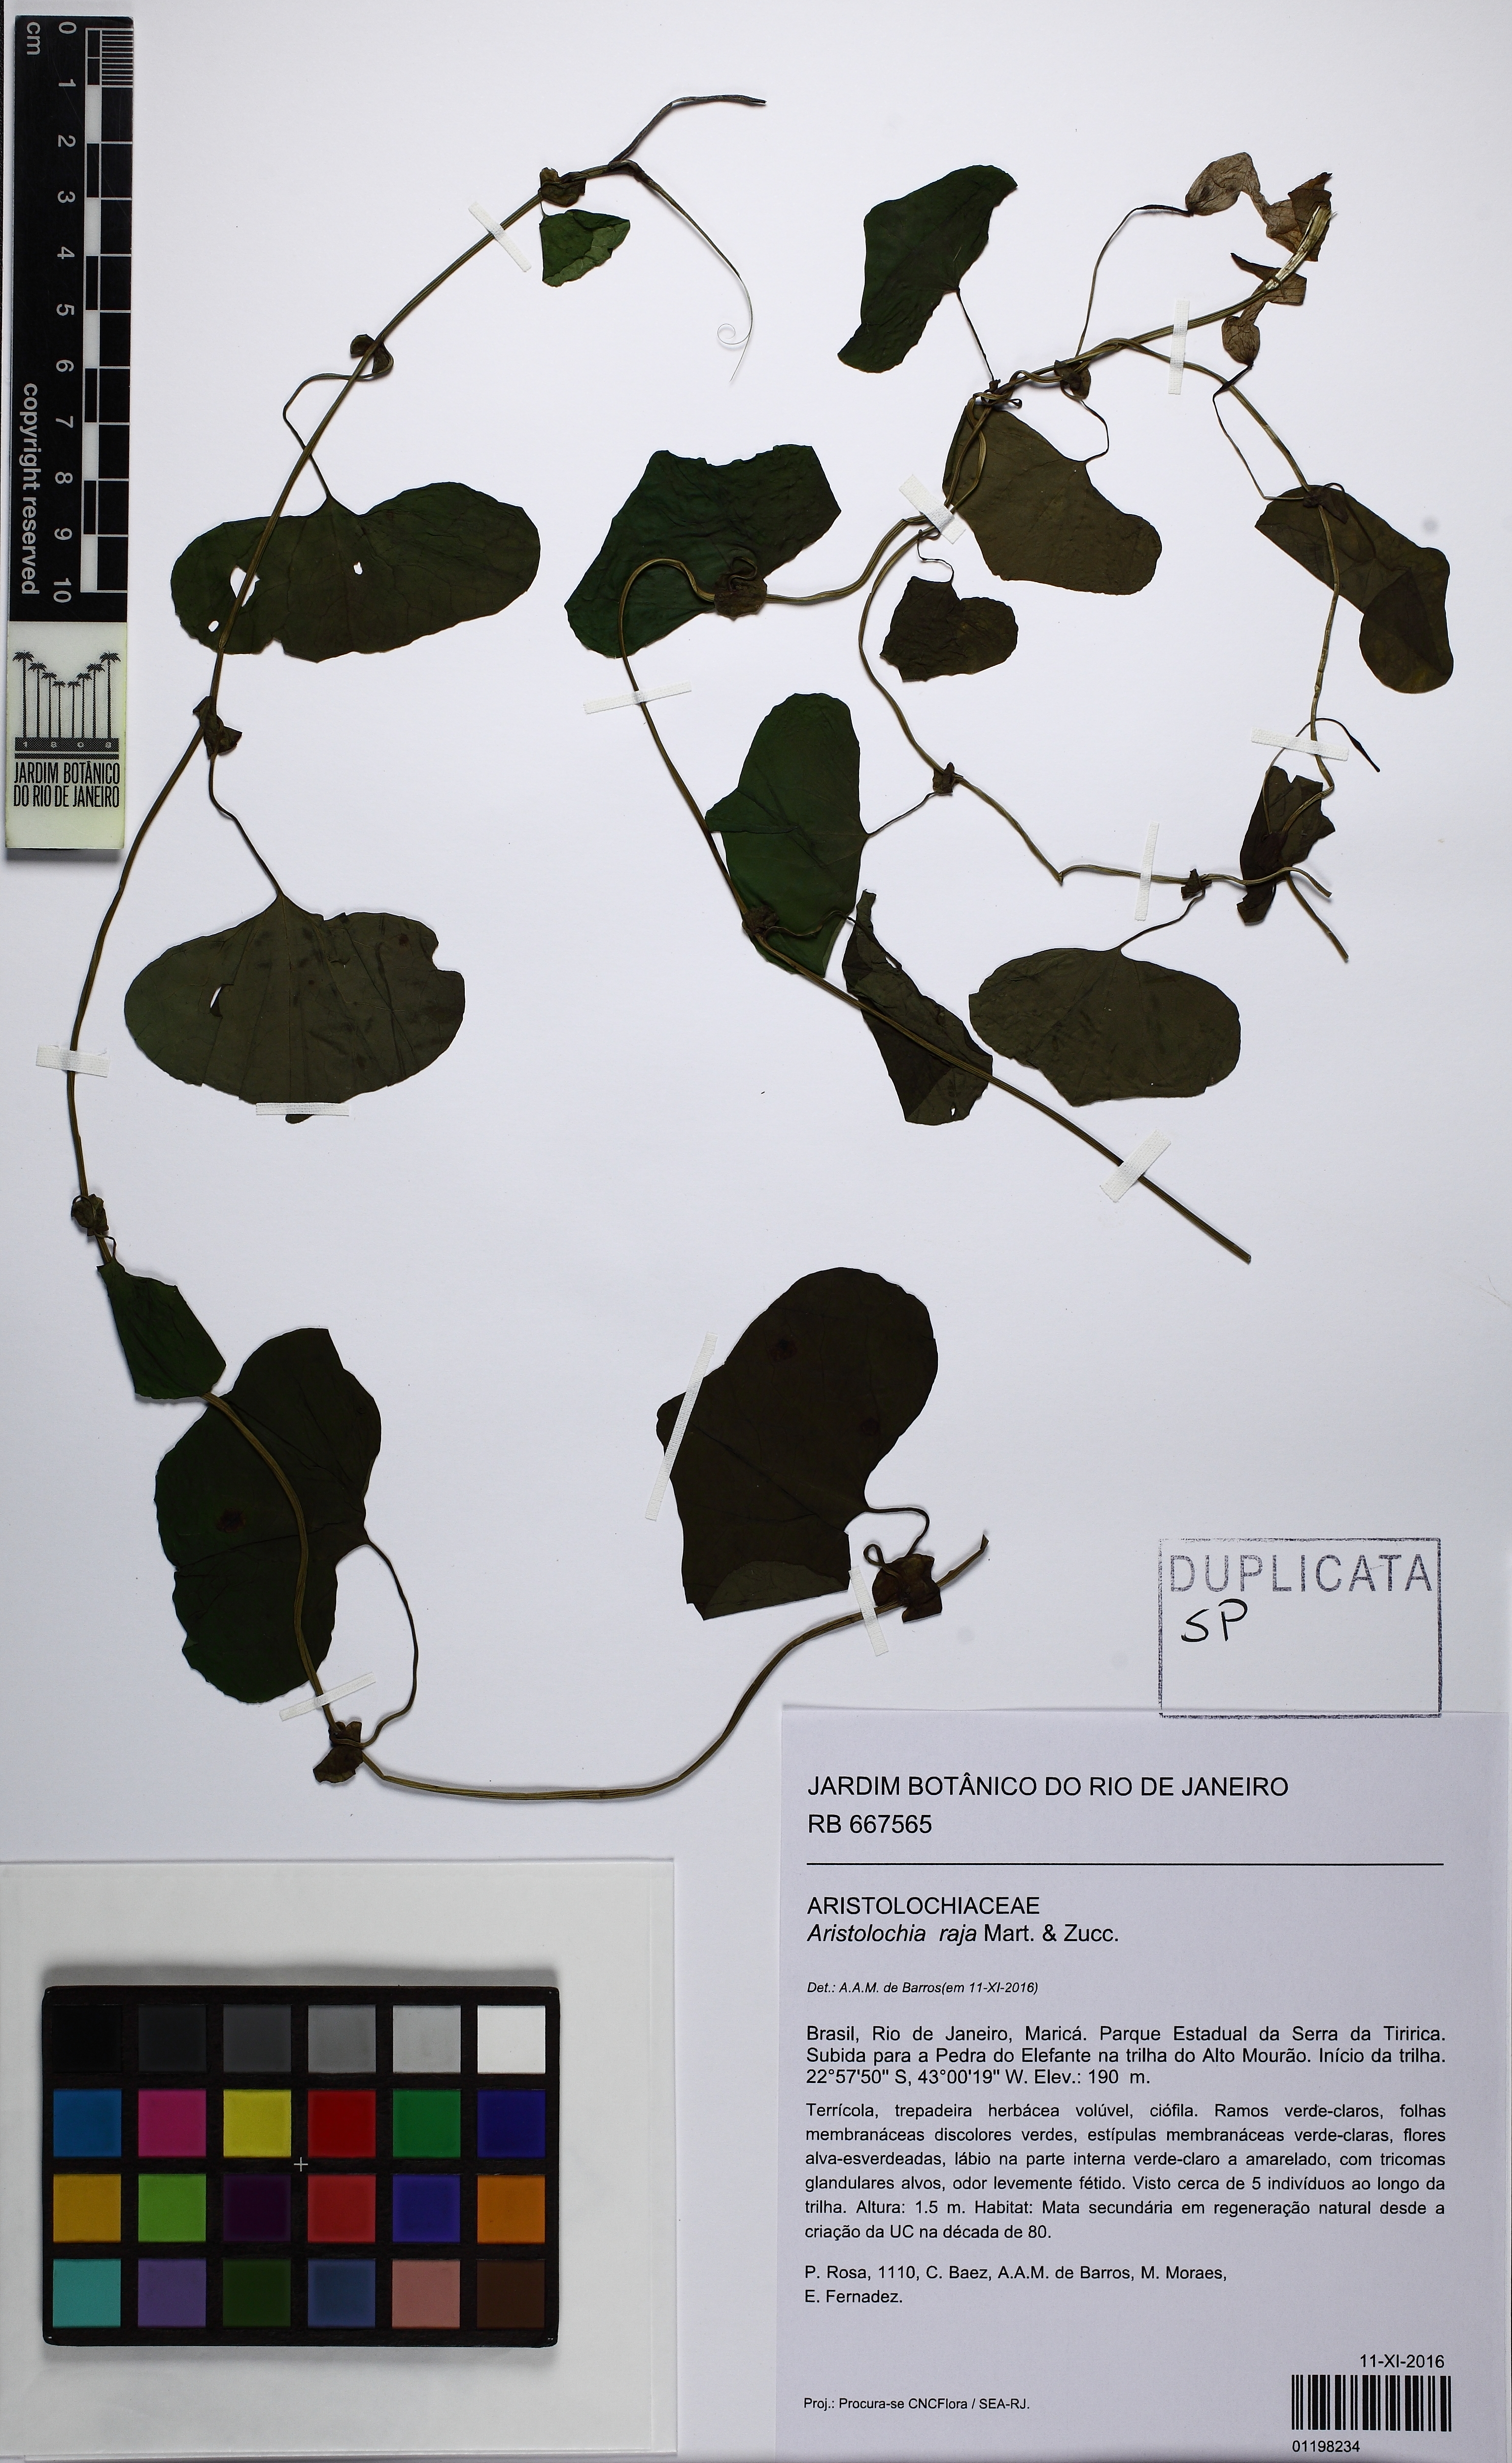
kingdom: Plantae
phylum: Tracheophyta
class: Magnoliopsida
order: Piperales
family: Aristolochiaceae
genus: Aristolochia
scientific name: Aristolochia raja
